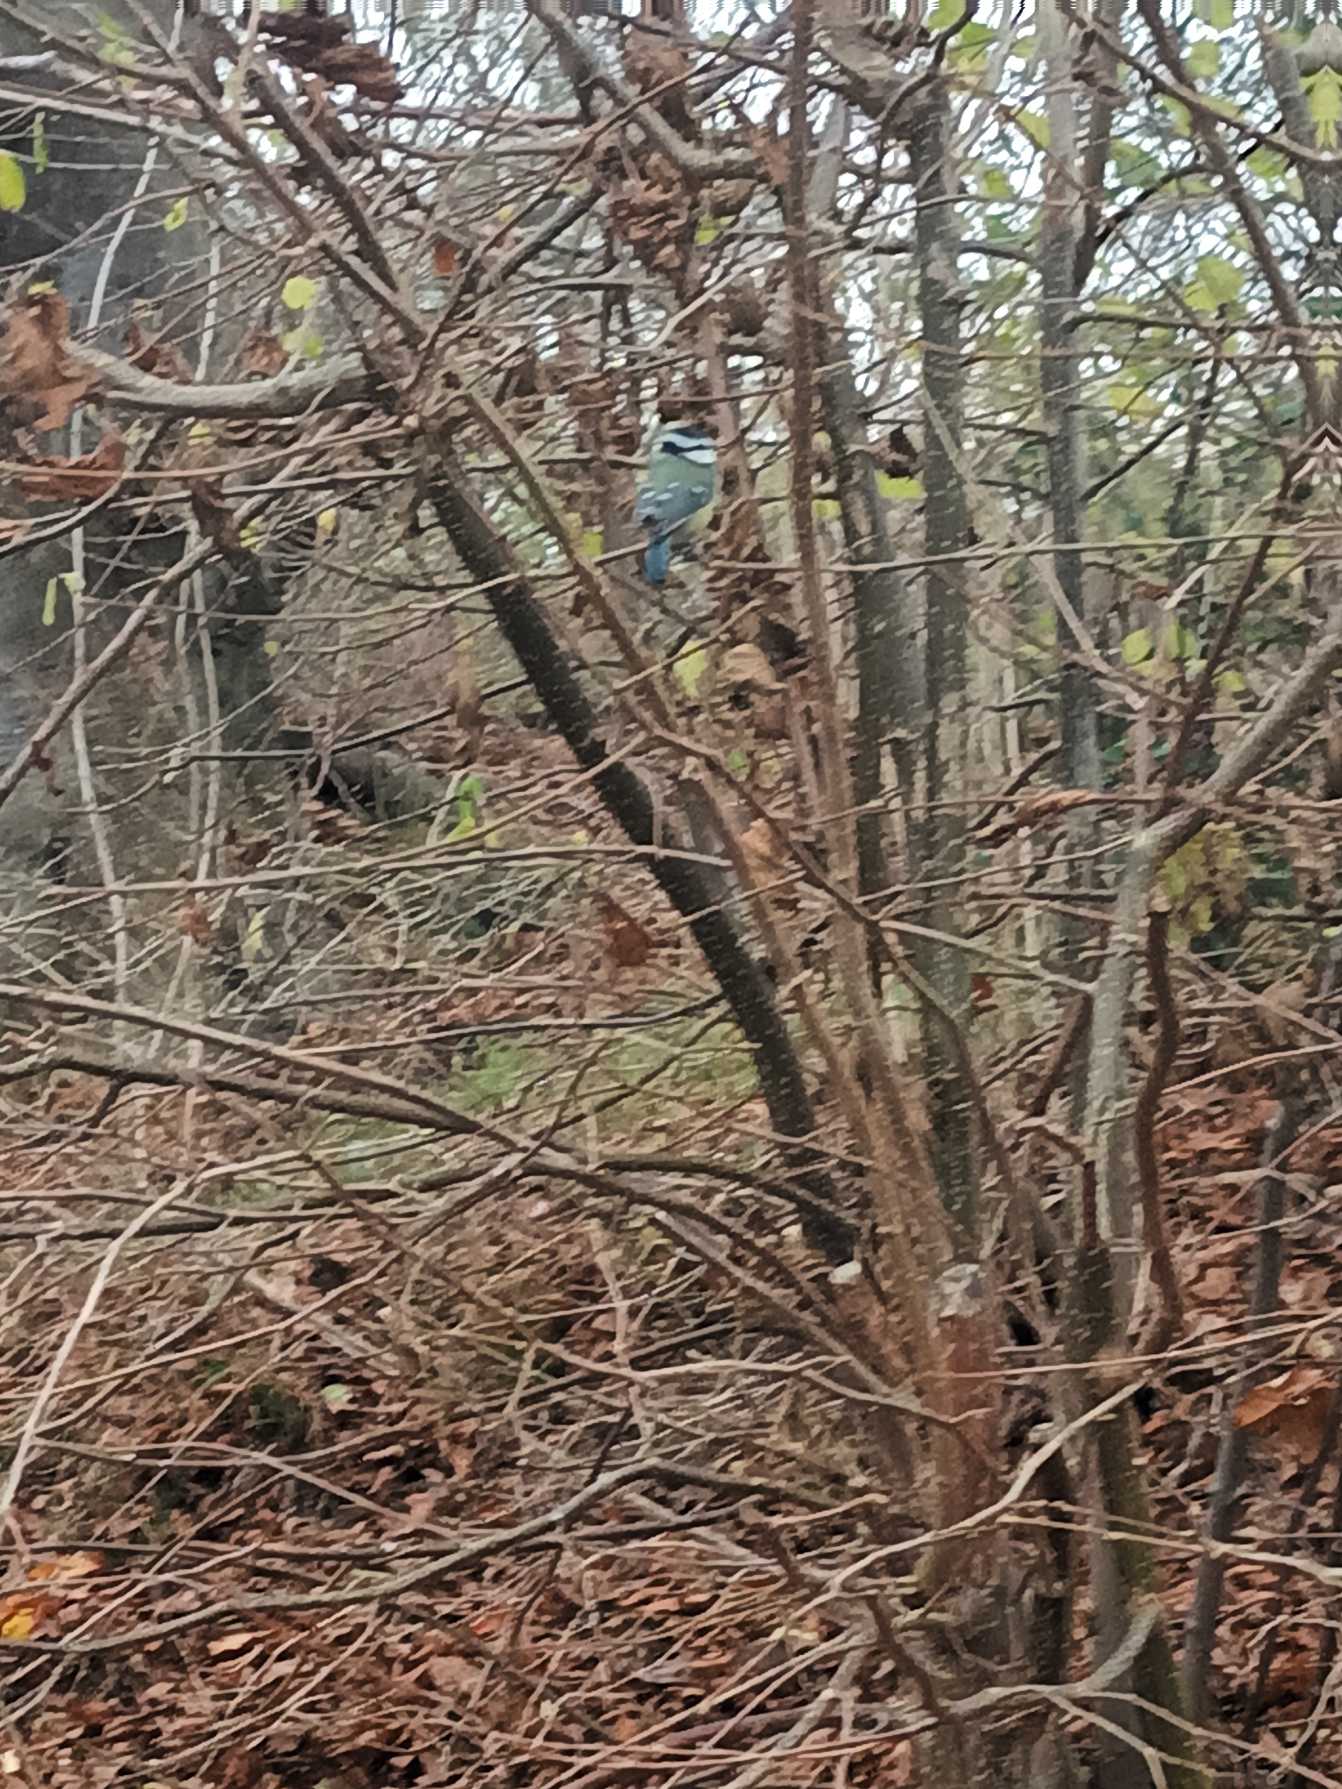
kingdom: Animalia
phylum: Chordata
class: Aves
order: Passeriformes
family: Paridae
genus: Cyanistes
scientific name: Cyanistes caeruleus
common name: Blåmejse
